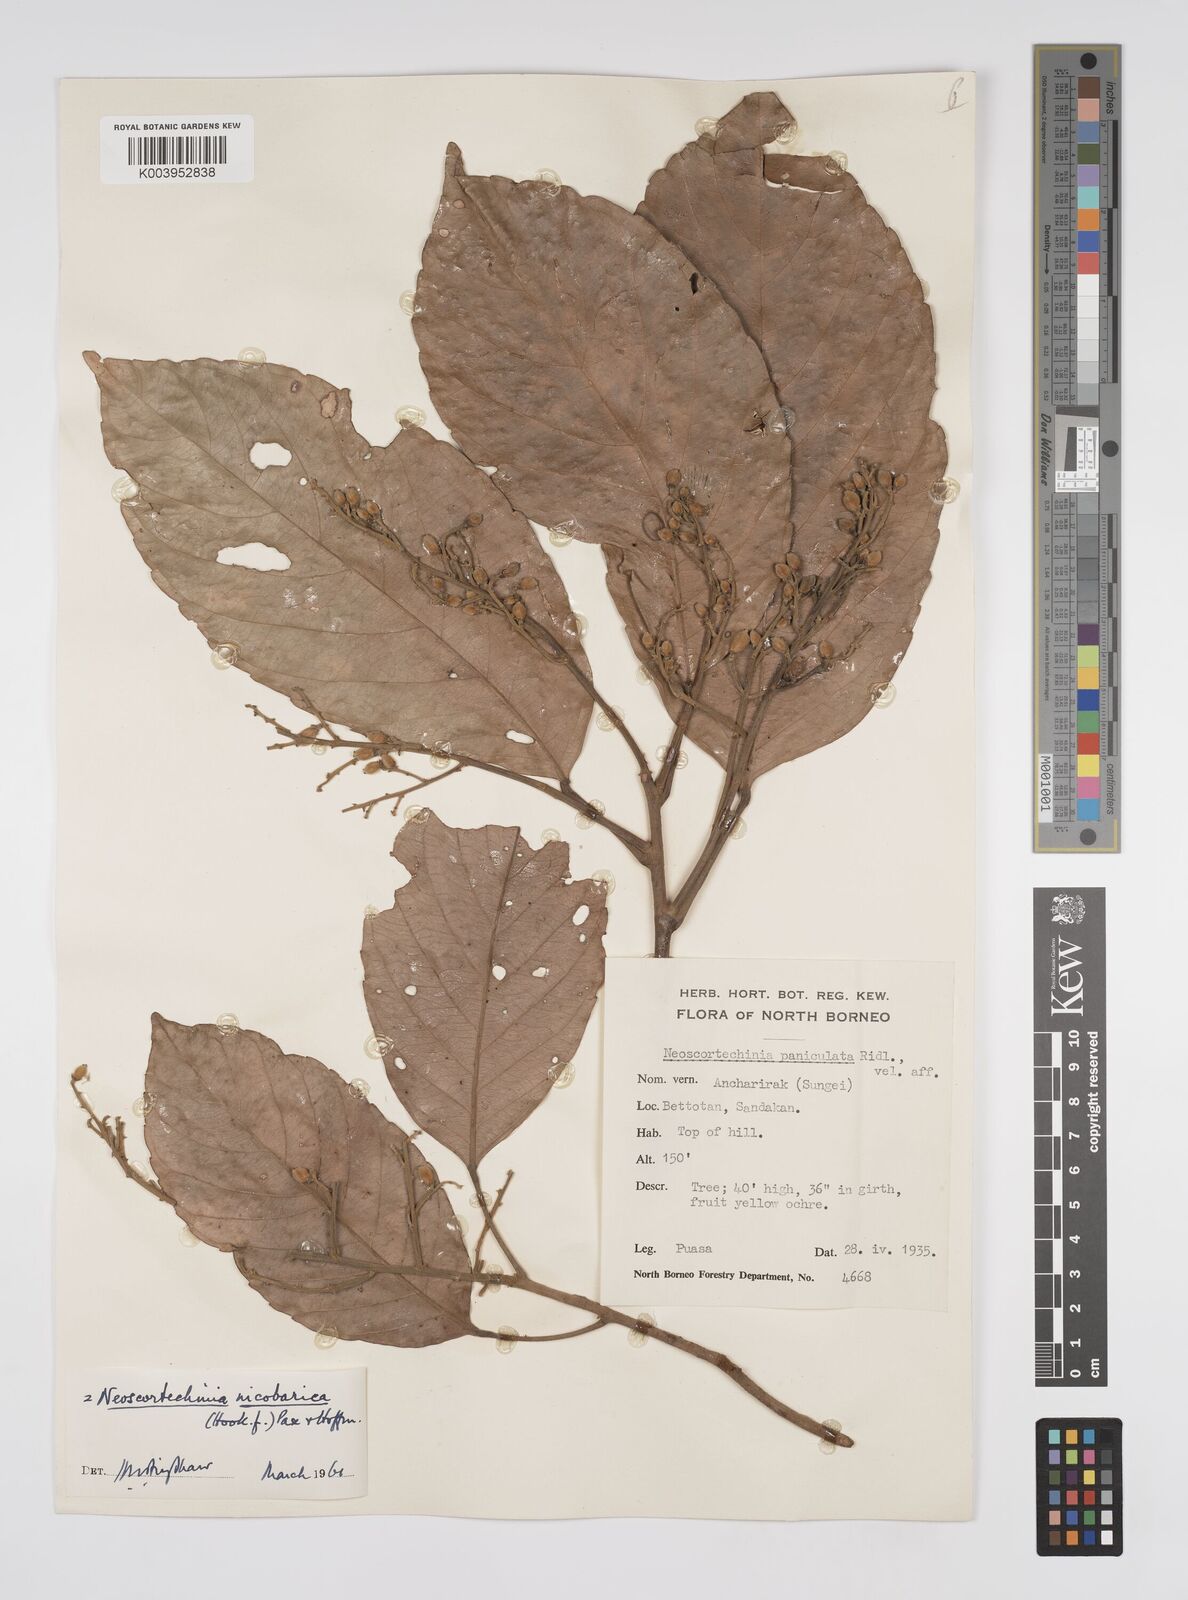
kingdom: Plantae
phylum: Tracheophyta
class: Magnoliopsida
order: Malpighiales
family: Euphorbiaceae
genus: Neoscortechinia
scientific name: Neoscortechinia nicobarica
